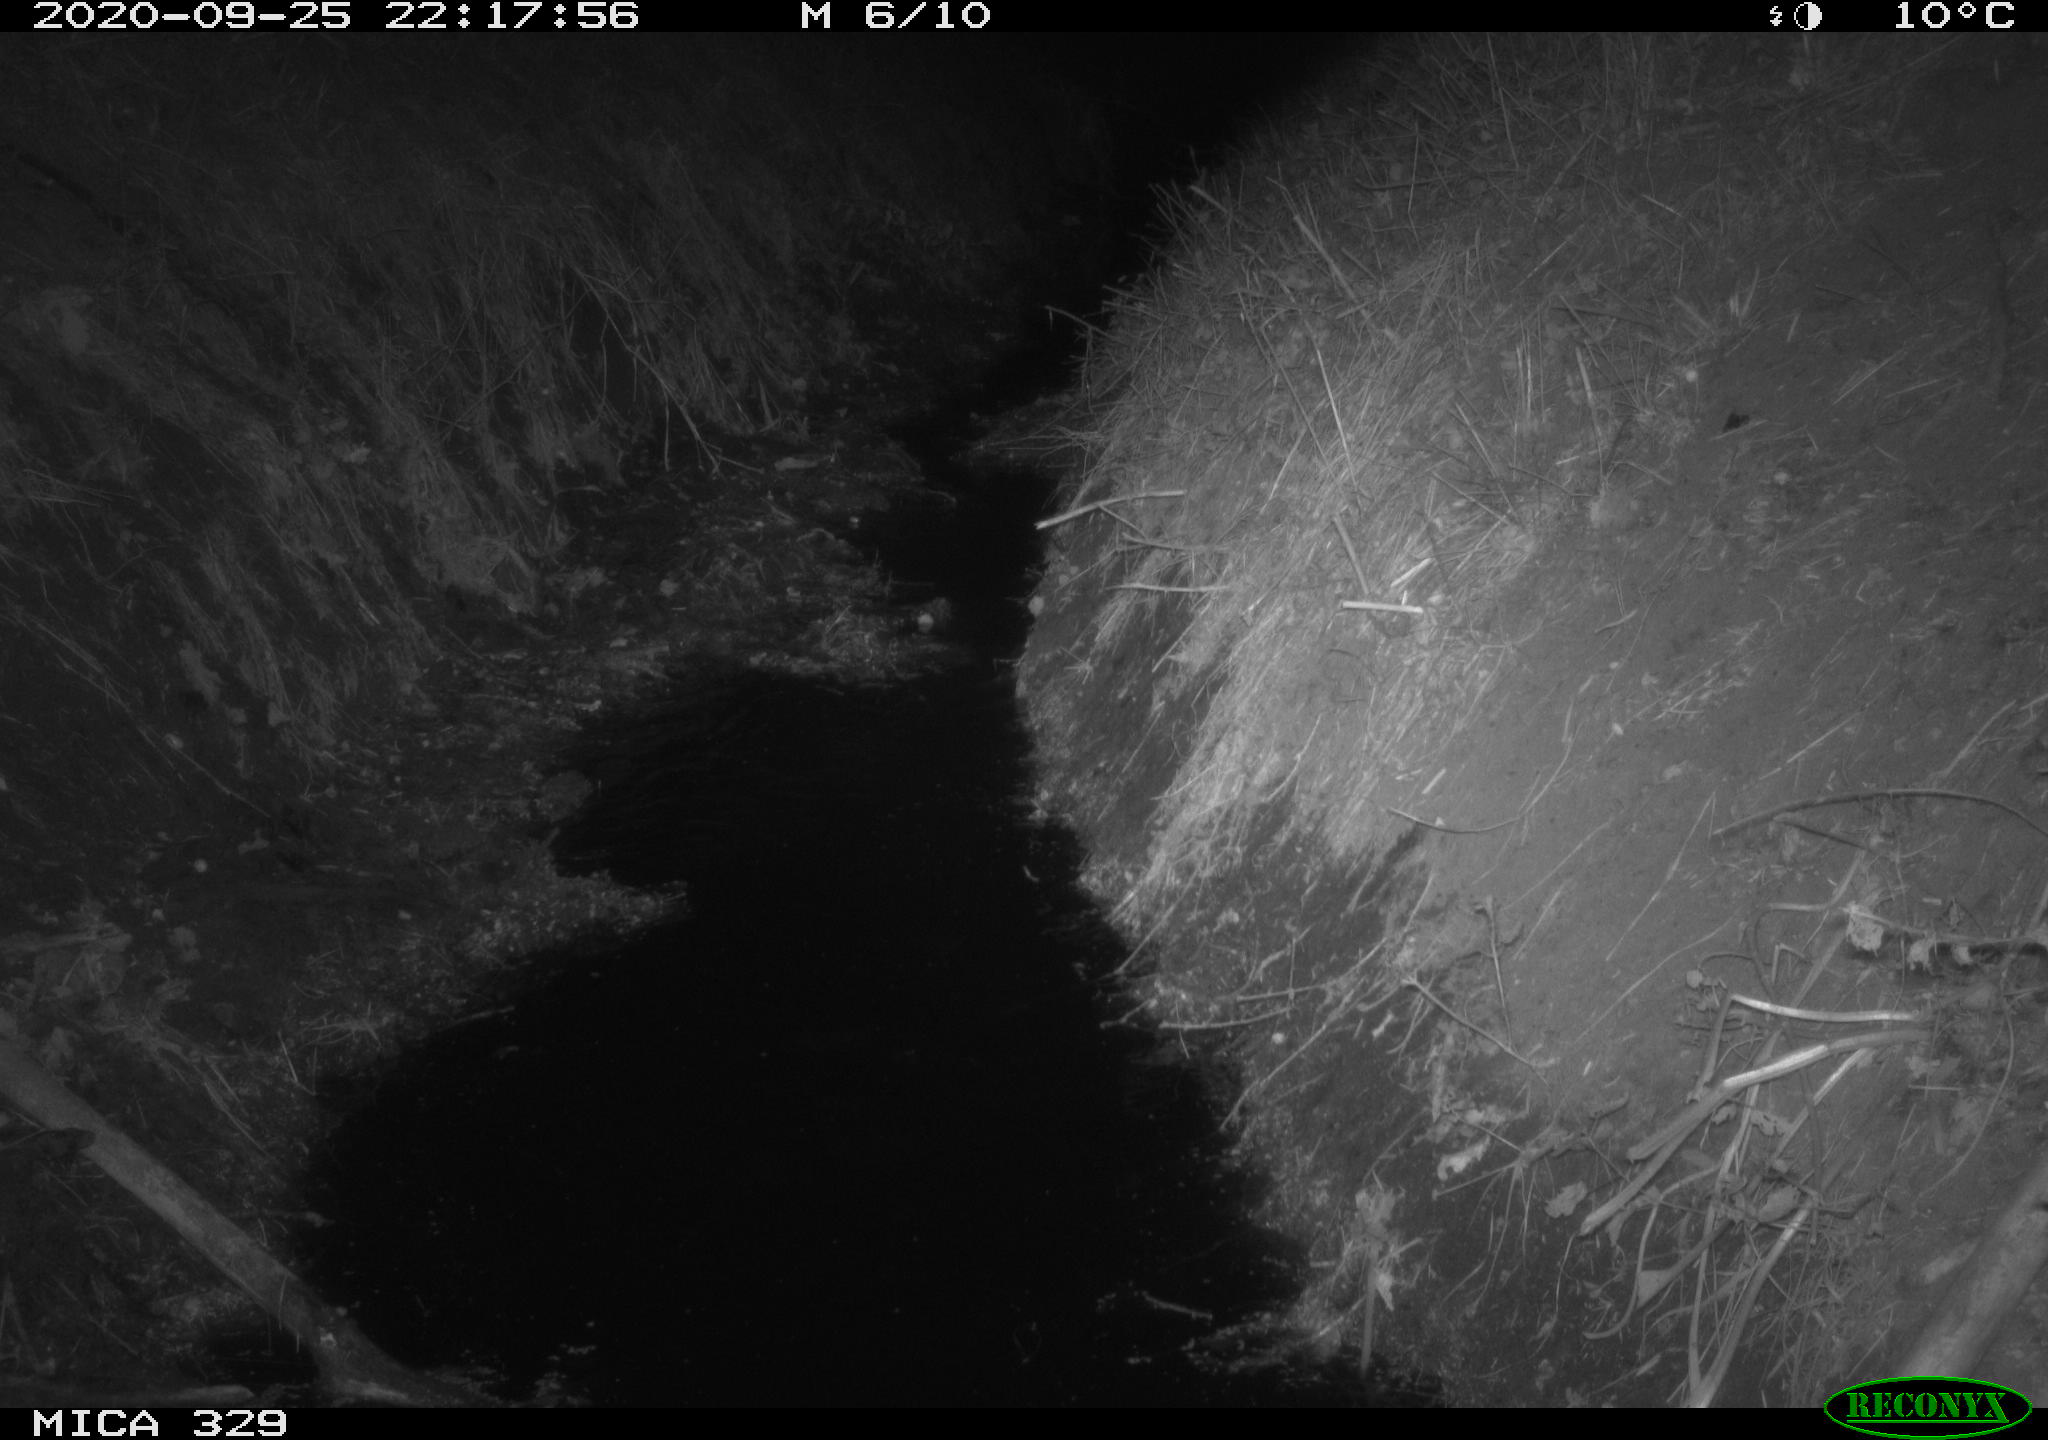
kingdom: Animalia
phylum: Chordata
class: Mammalia
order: Rodentia
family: Muridae
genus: Rattus
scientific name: Rattus norvegicus
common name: Brown rat
